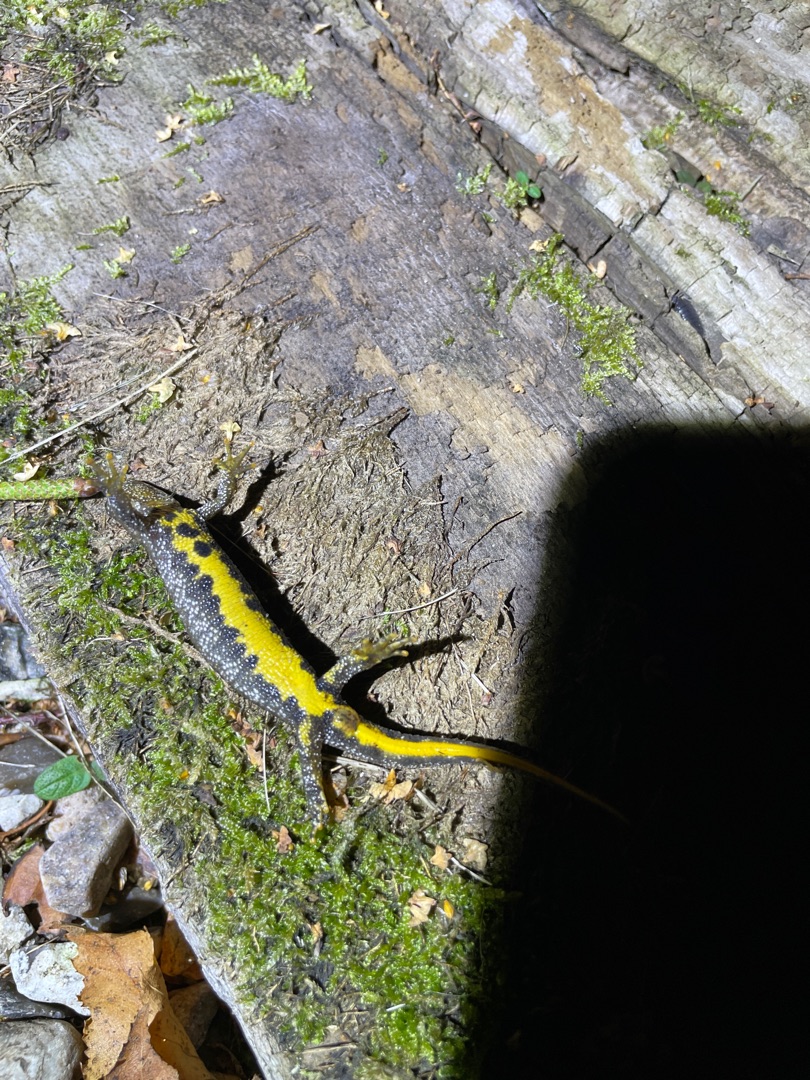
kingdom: Animalia
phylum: Chordata
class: Amphibia
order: Caudata
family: Salamandridae
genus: Triturus
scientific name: Triturus cristatus
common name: Stor vandsalamander
